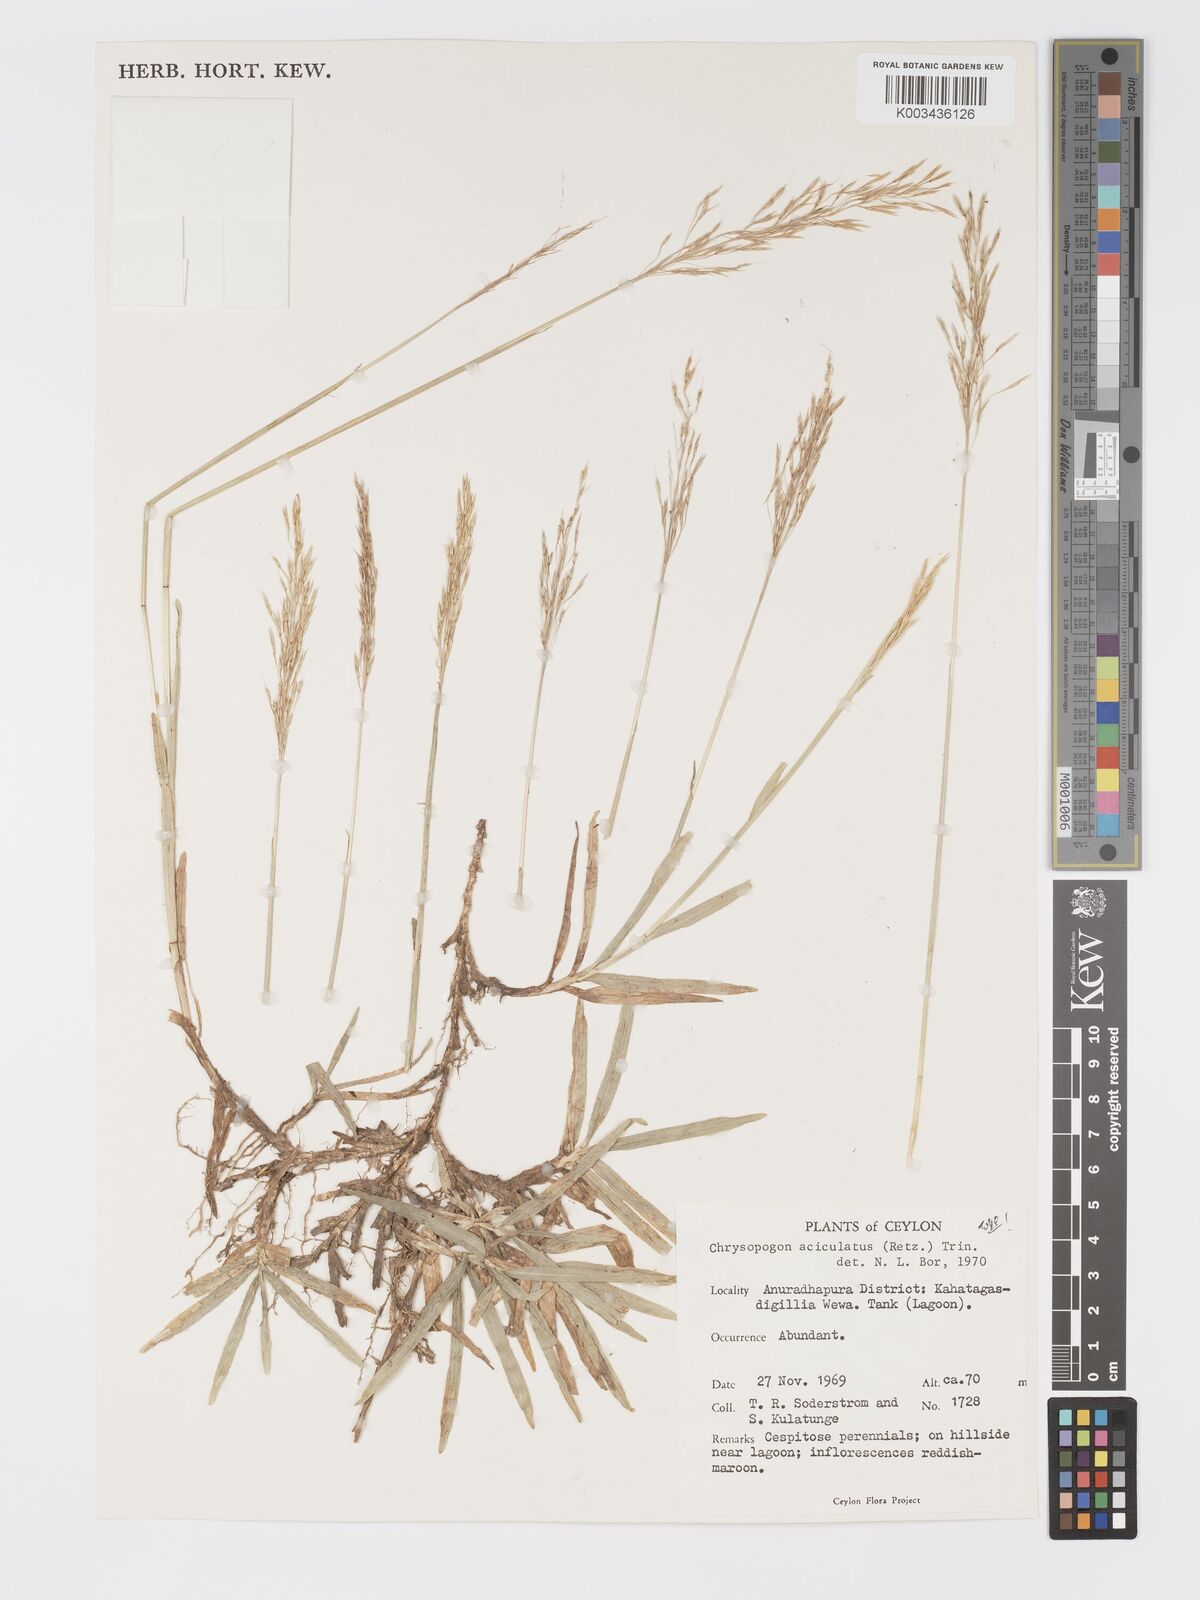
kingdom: Plantae
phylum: Tracheophyta
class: Liliopsida
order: Poales
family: Poaceae
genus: Chrysopogon
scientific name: Chrysopogon aciculatus
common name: Pilipiliula
